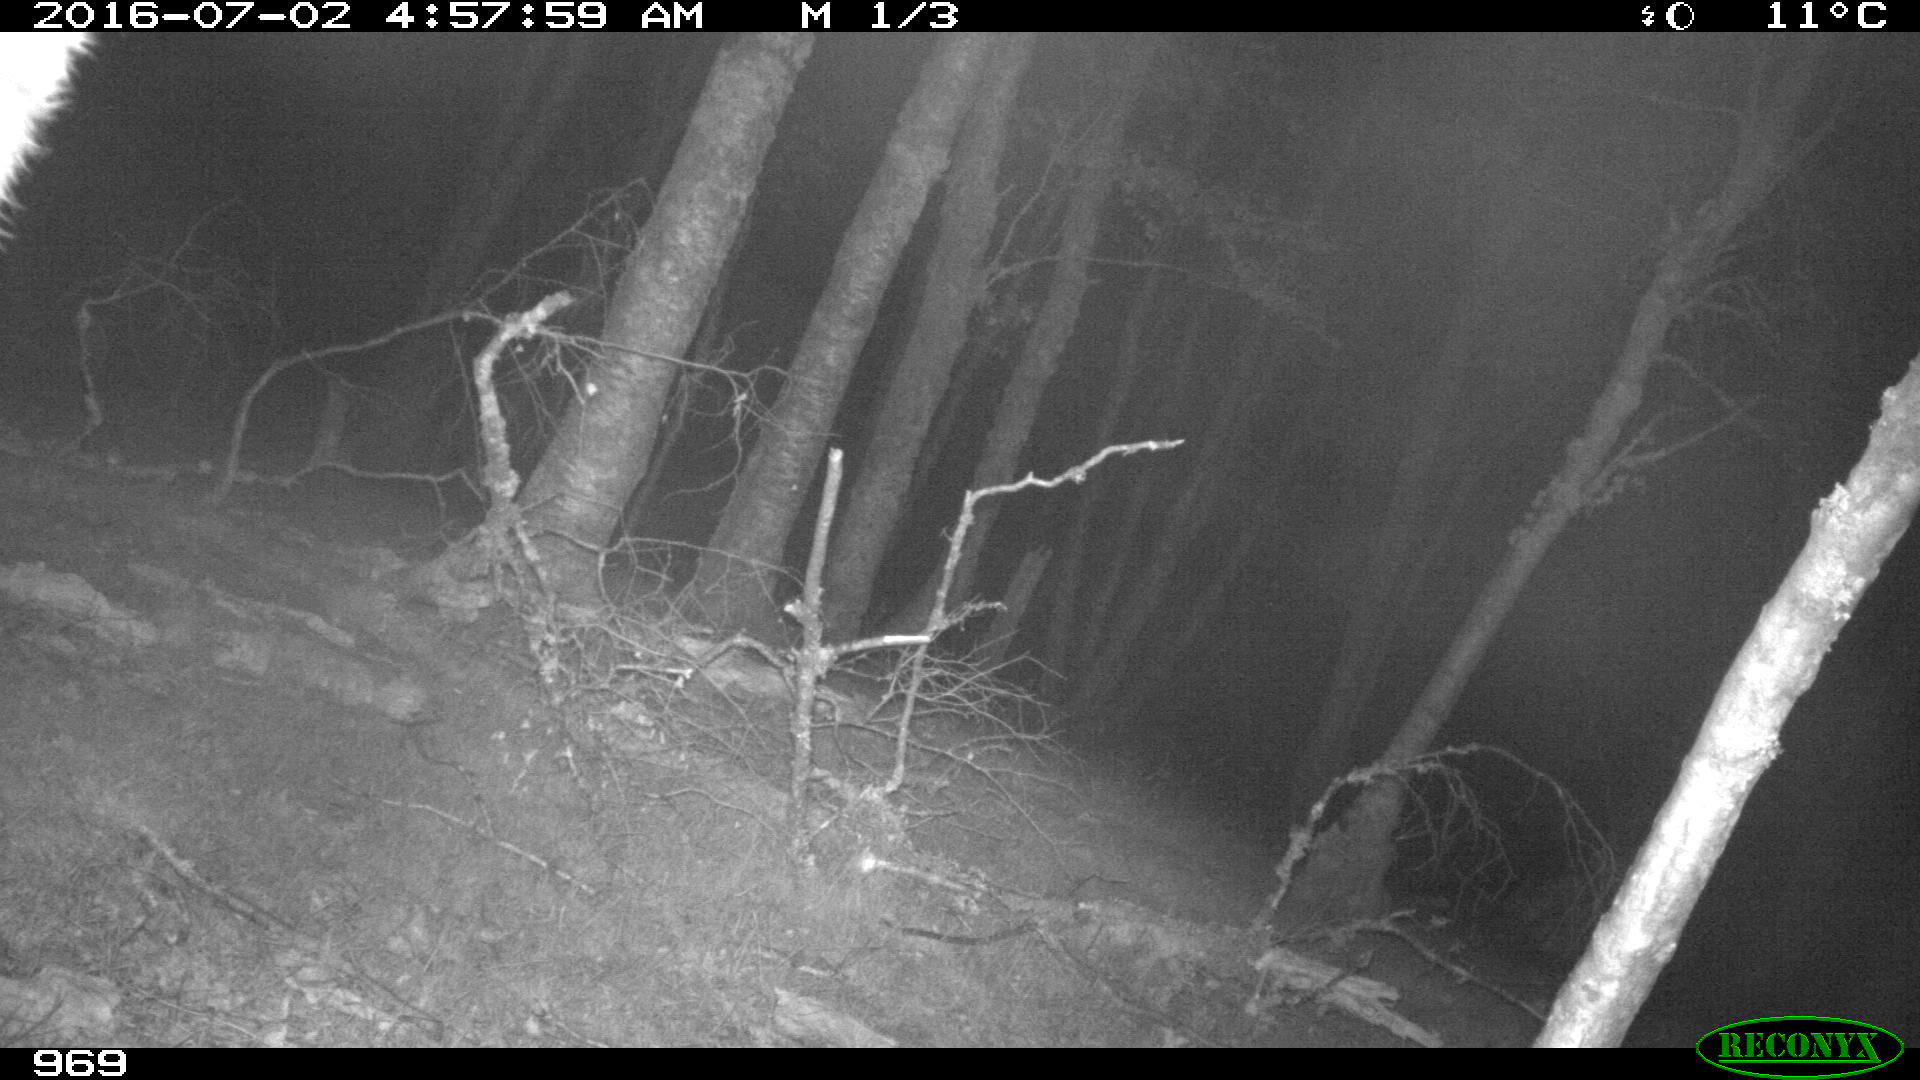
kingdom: Animalia
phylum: Chordata
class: Mammalia
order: Artiodactyla
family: Bovidae
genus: Bos
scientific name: Bos taurus
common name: Domesticated cattle
